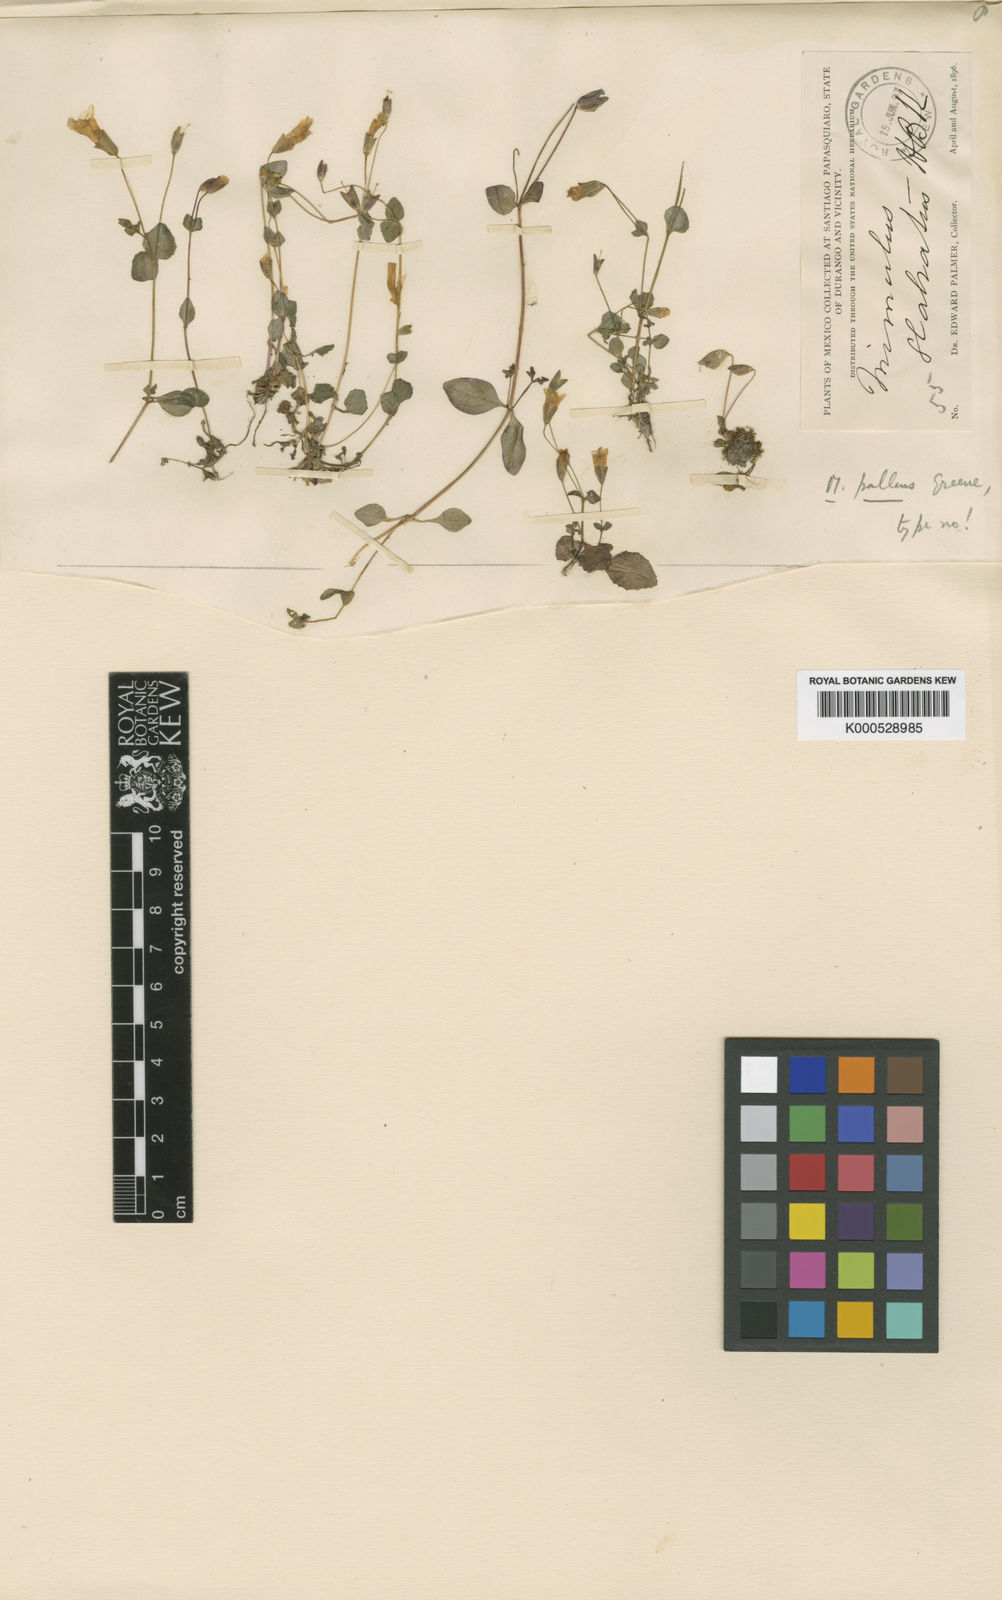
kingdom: Plantae
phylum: Tracheophyta
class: Magnoliopsida
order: Lamiales
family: Phrymaceae
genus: Erythranthe
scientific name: Erythranthe pallens
